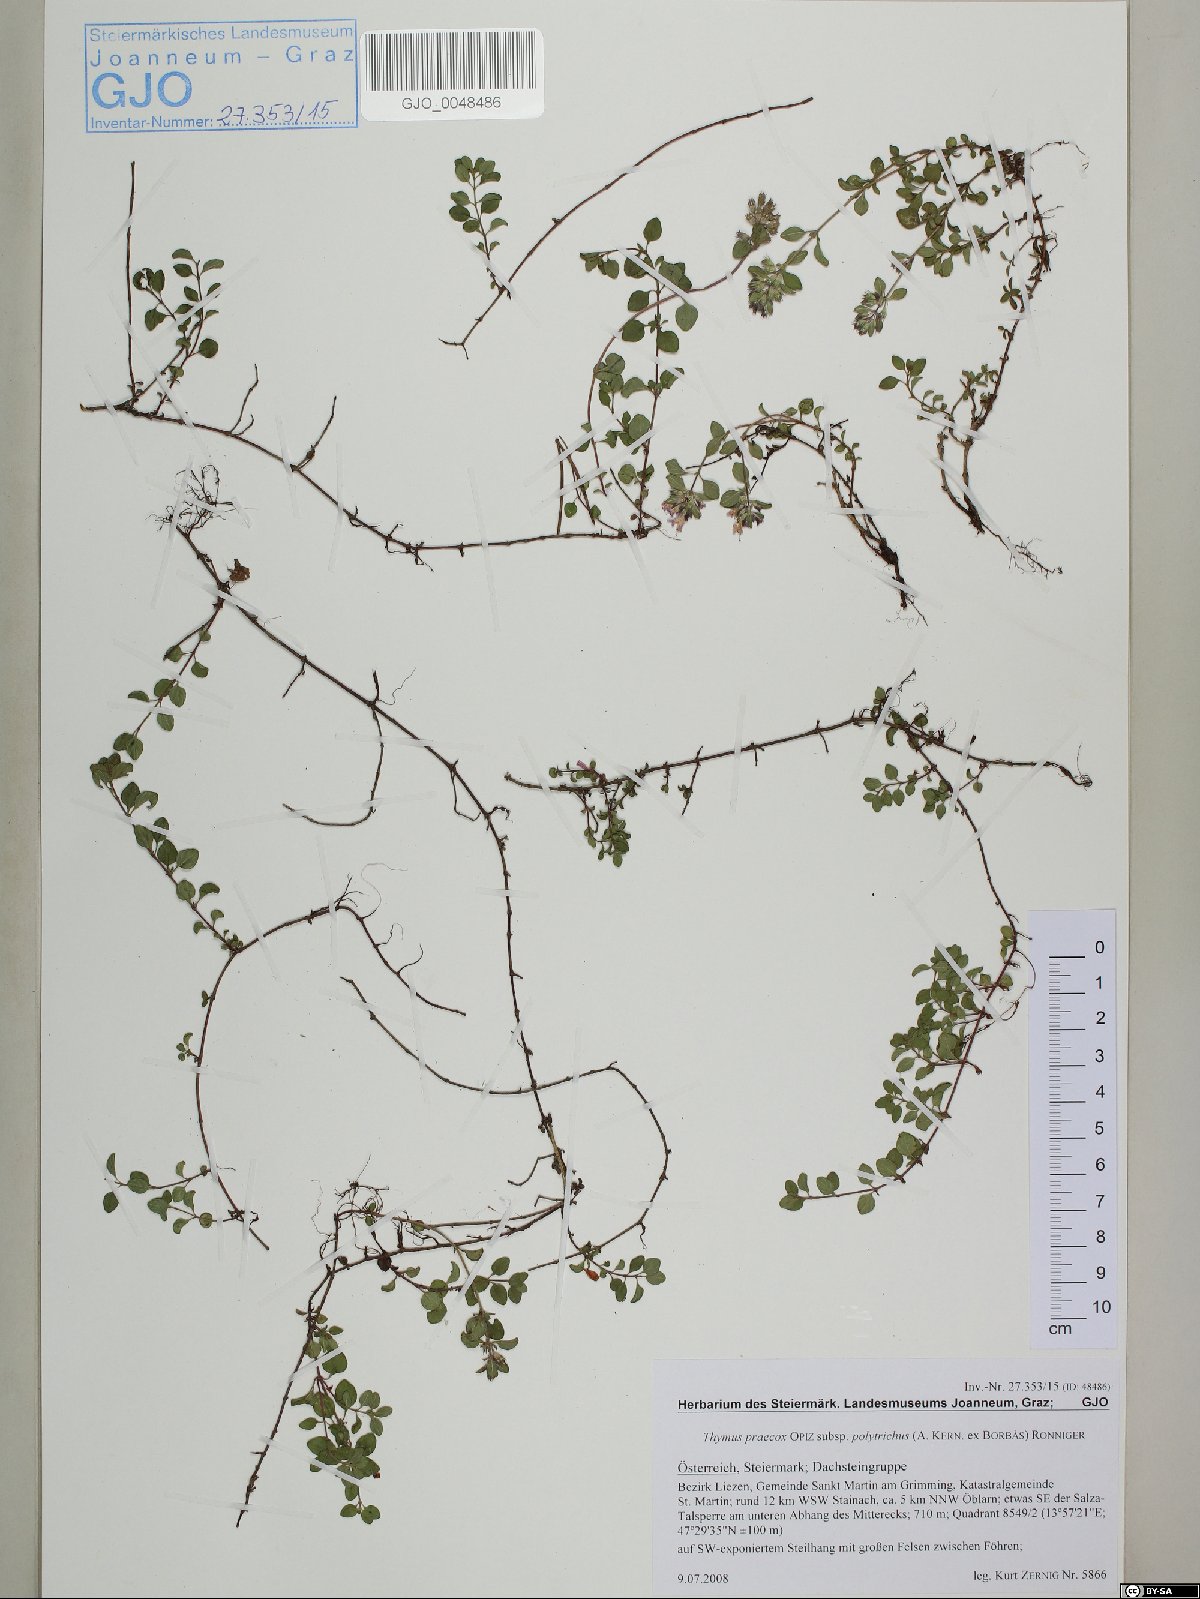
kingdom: Plantae
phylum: Tracheophyta
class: Magnoliopsida
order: Lamiales
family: Lamiaceae
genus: Thymus
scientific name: Thymus praecox
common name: Wild thyme
